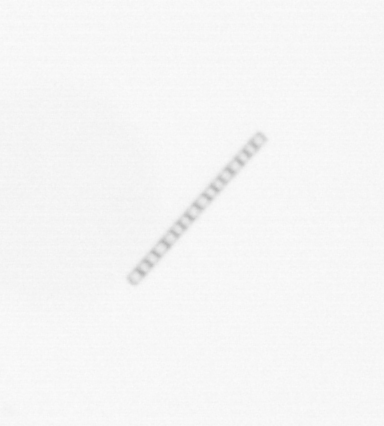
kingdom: Chromista
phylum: Ochrophyta
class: Bacillariophyceae
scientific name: Bacillariophyceae
